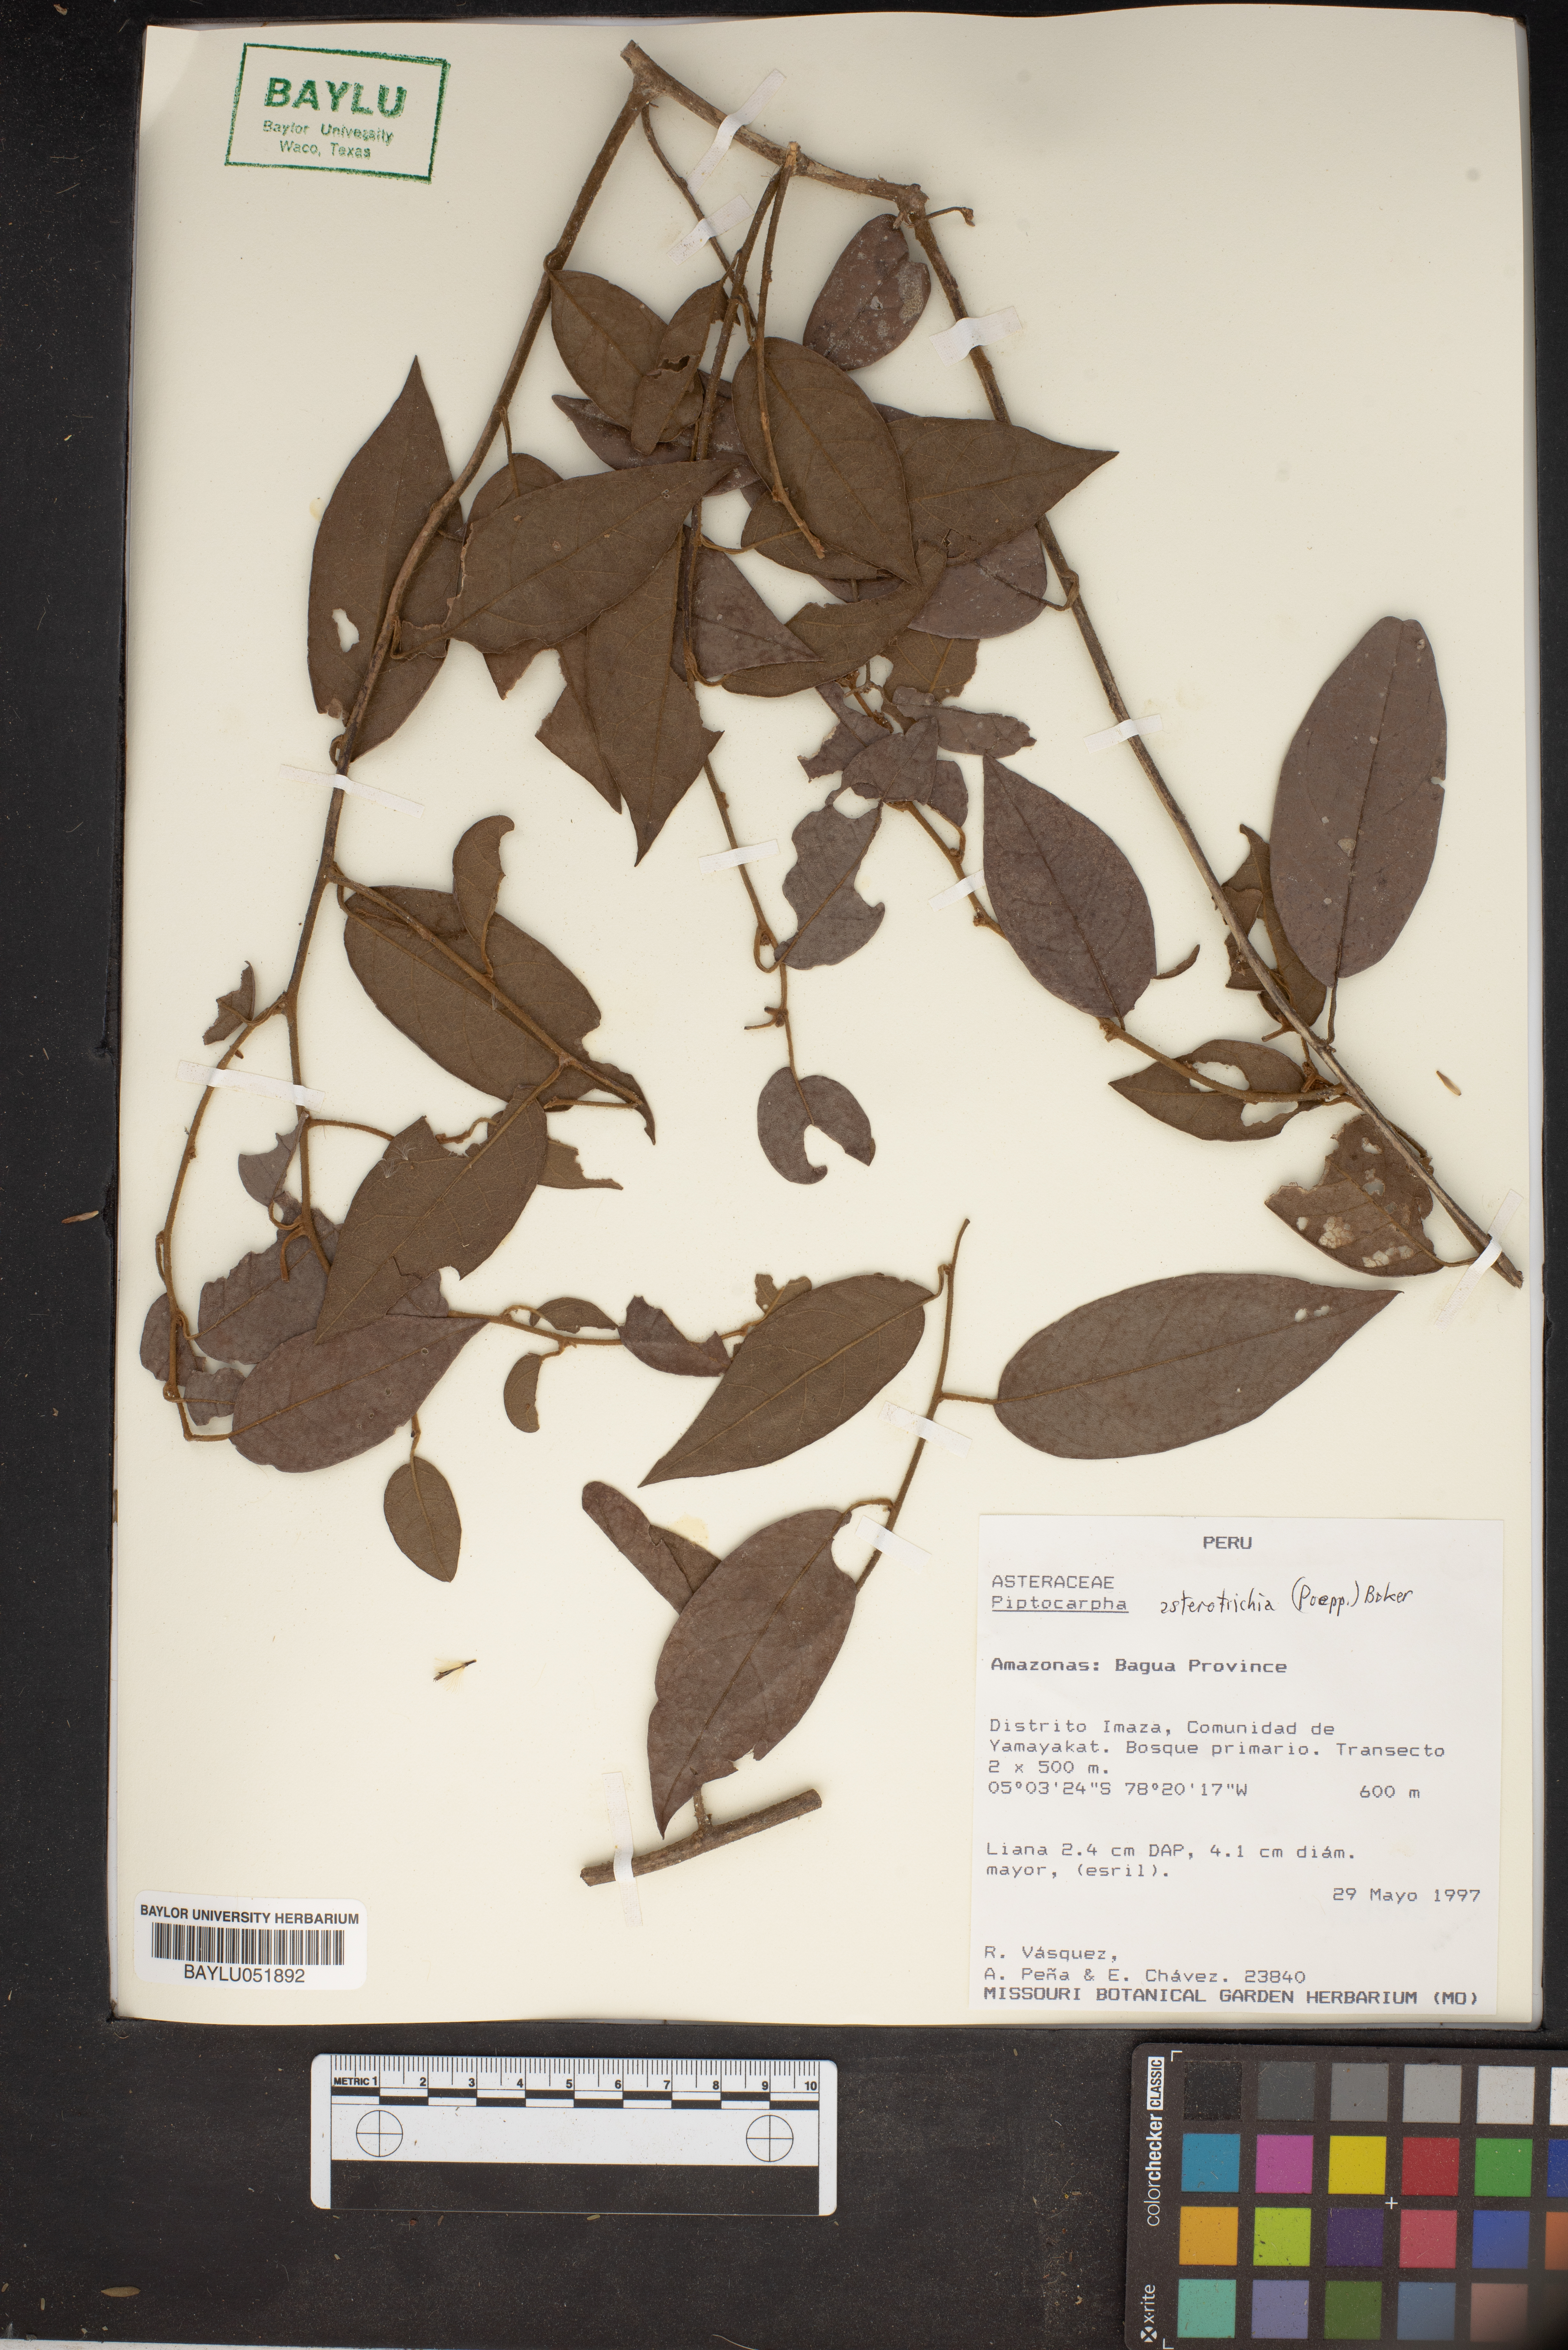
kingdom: Plantae
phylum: Tracheophyta
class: Magnoliopsida
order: Asterales
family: Asteraceae
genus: Piptocarpha
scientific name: Piptocarpha asterotrichia
